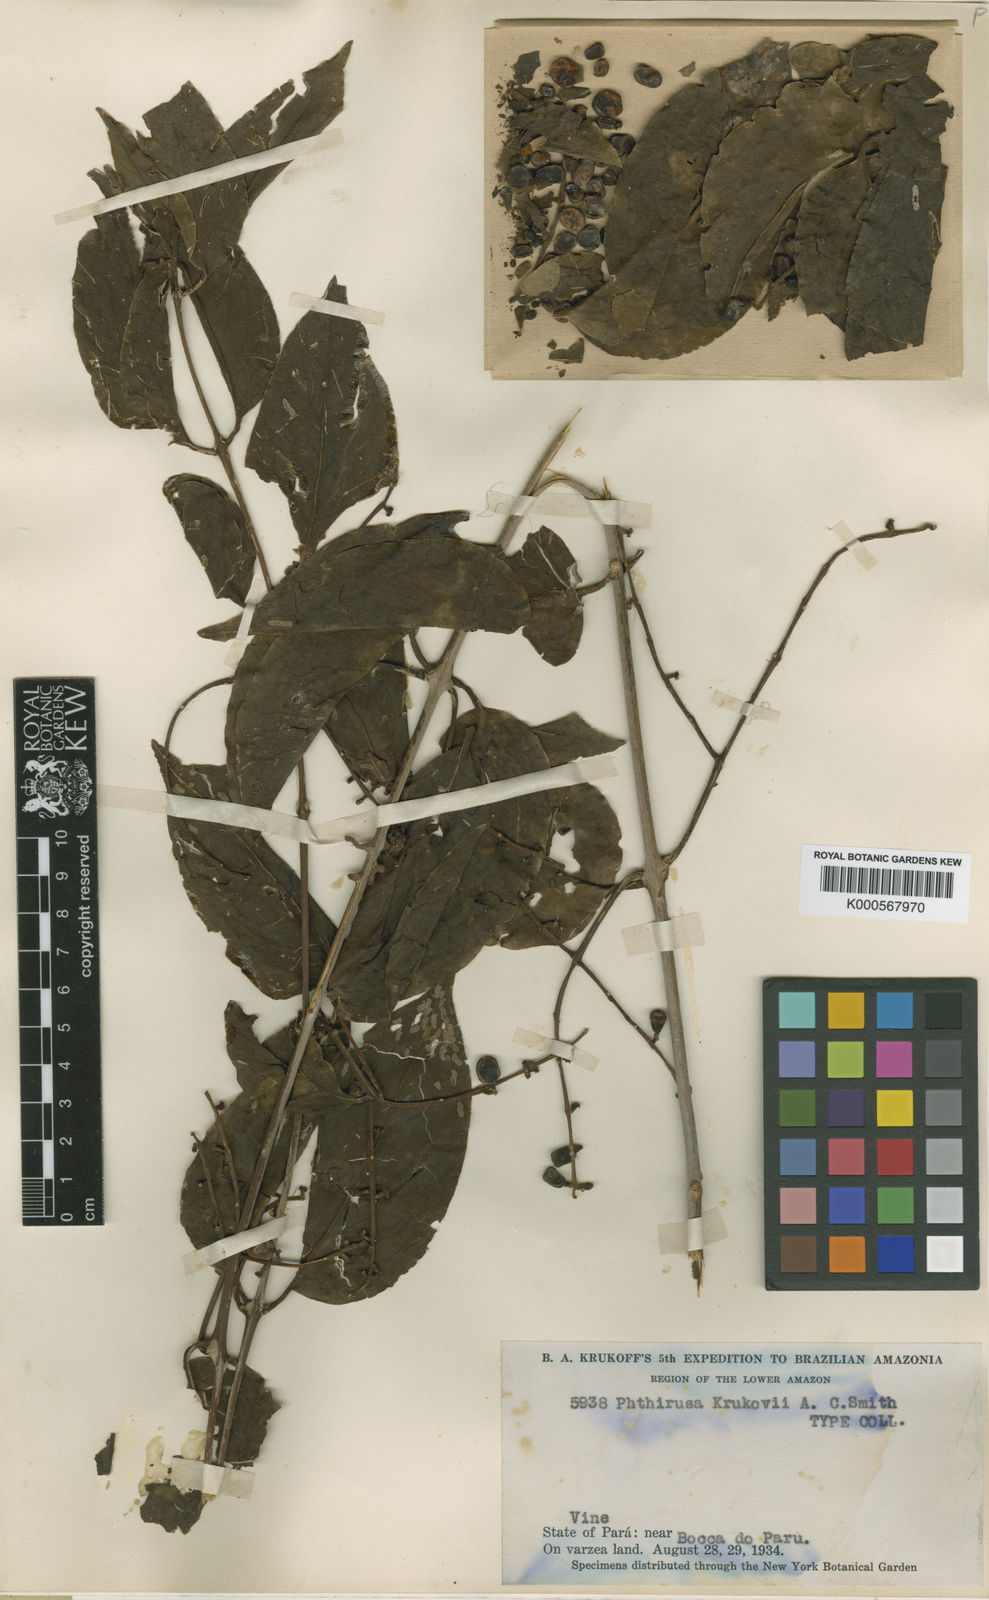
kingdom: Plantae
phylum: Tracheophyta
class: Magnoliopsida
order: Santalales
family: Loranthaceae
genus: Passovia
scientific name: Passovia pedunculata
